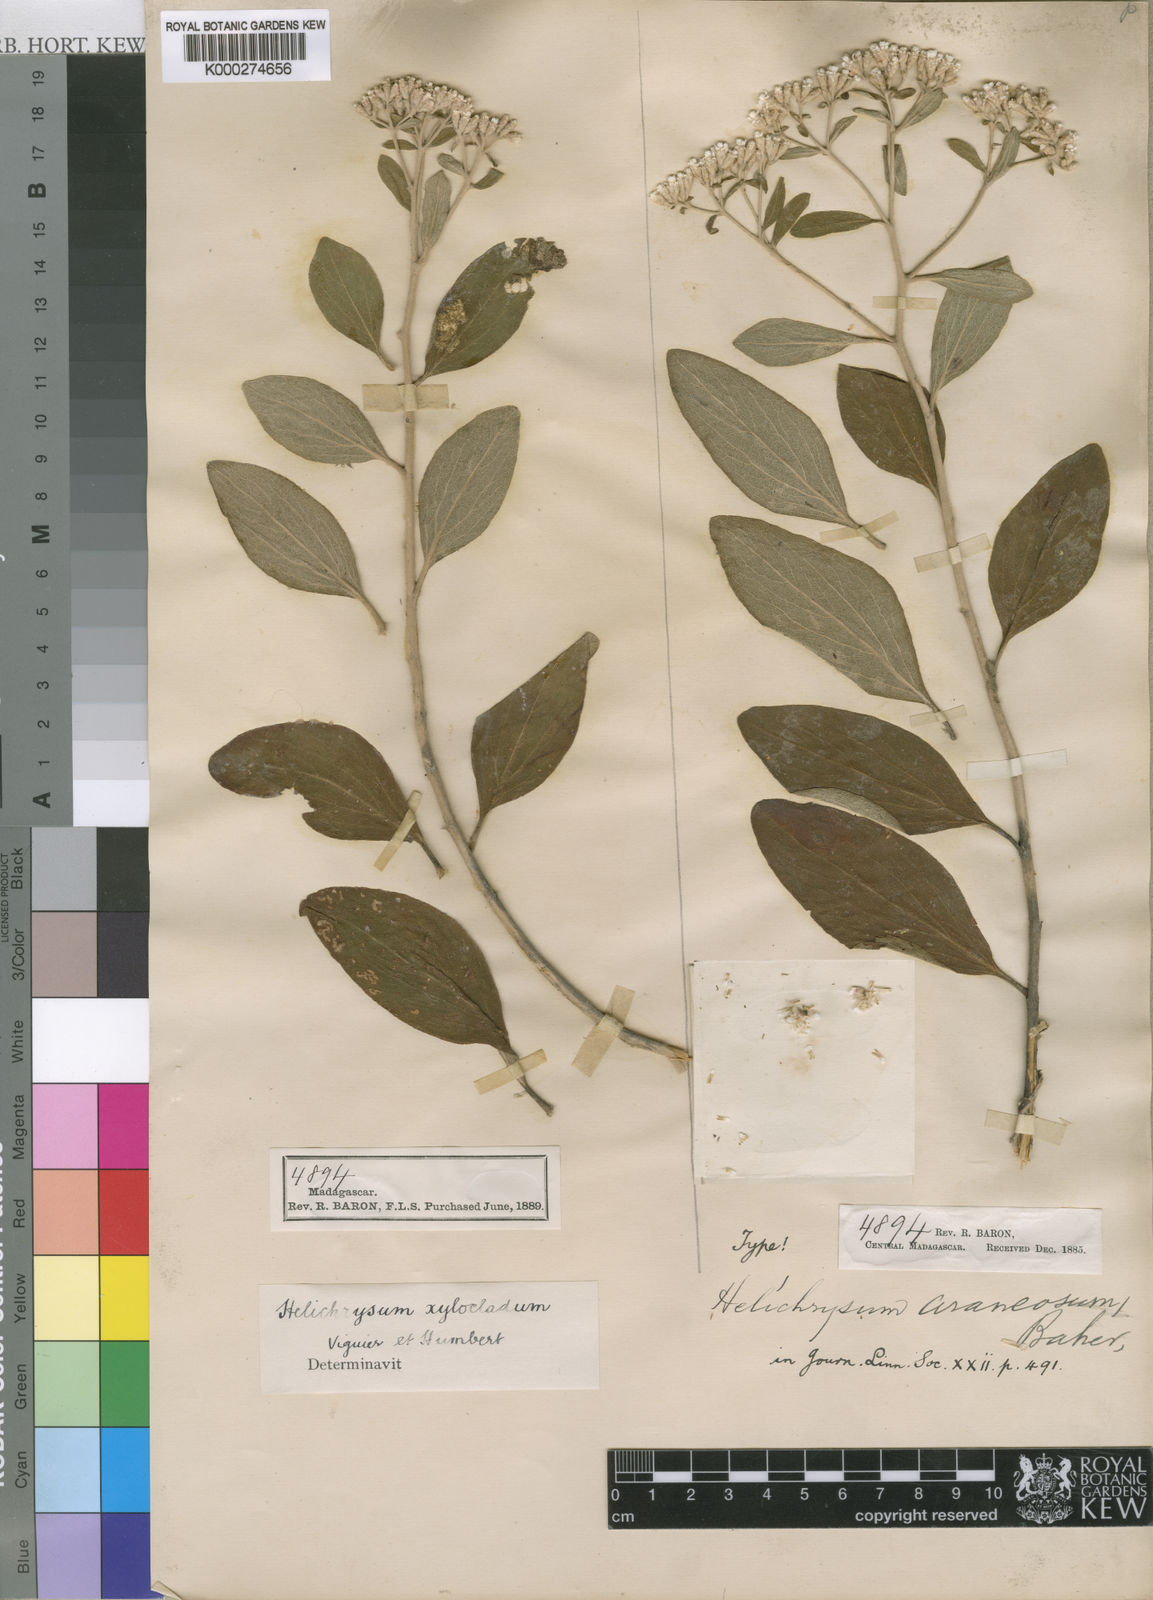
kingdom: Plantae
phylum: Tracheophyta
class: Magnoliopsida
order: Asterales
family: Asteraceae
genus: Helichrysum
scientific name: Helichrysum
